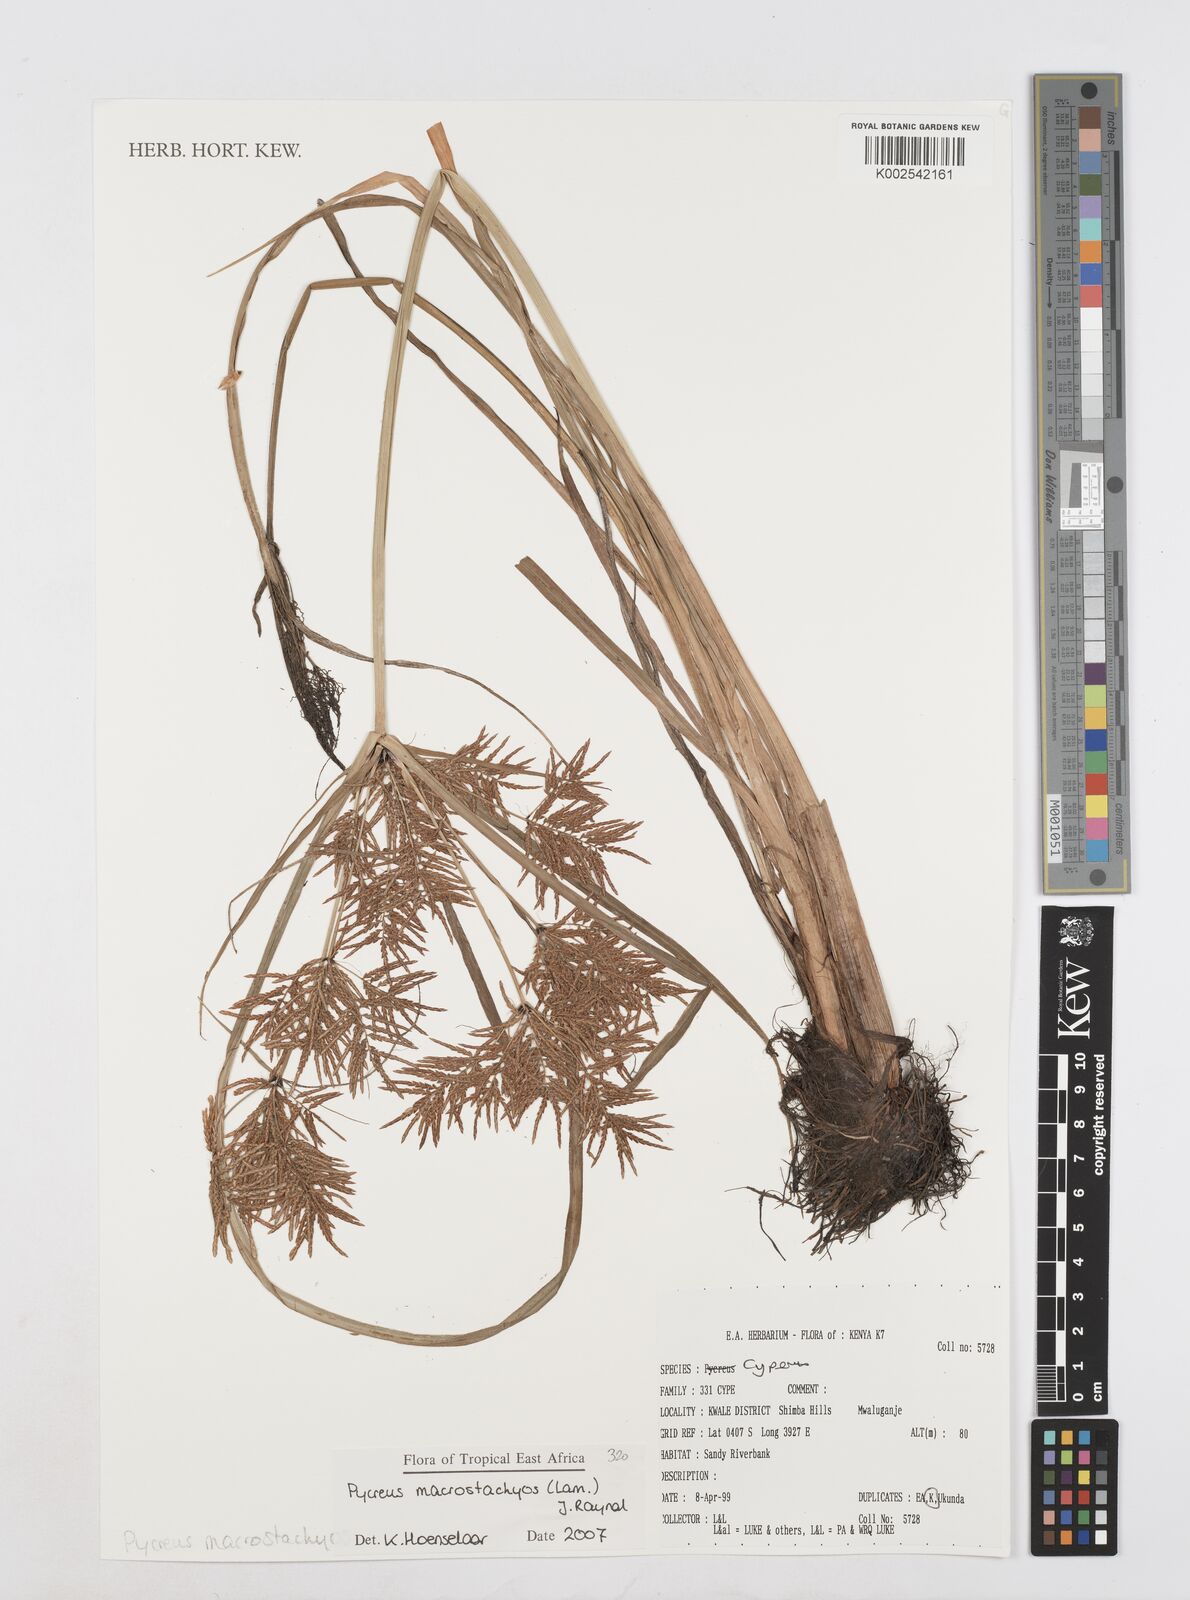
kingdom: Plantae
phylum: Tracheophyta
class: Liliopsida
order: Poales
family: Cyperaceae
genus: Cyperus
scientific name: Cyperus macrostachyos
